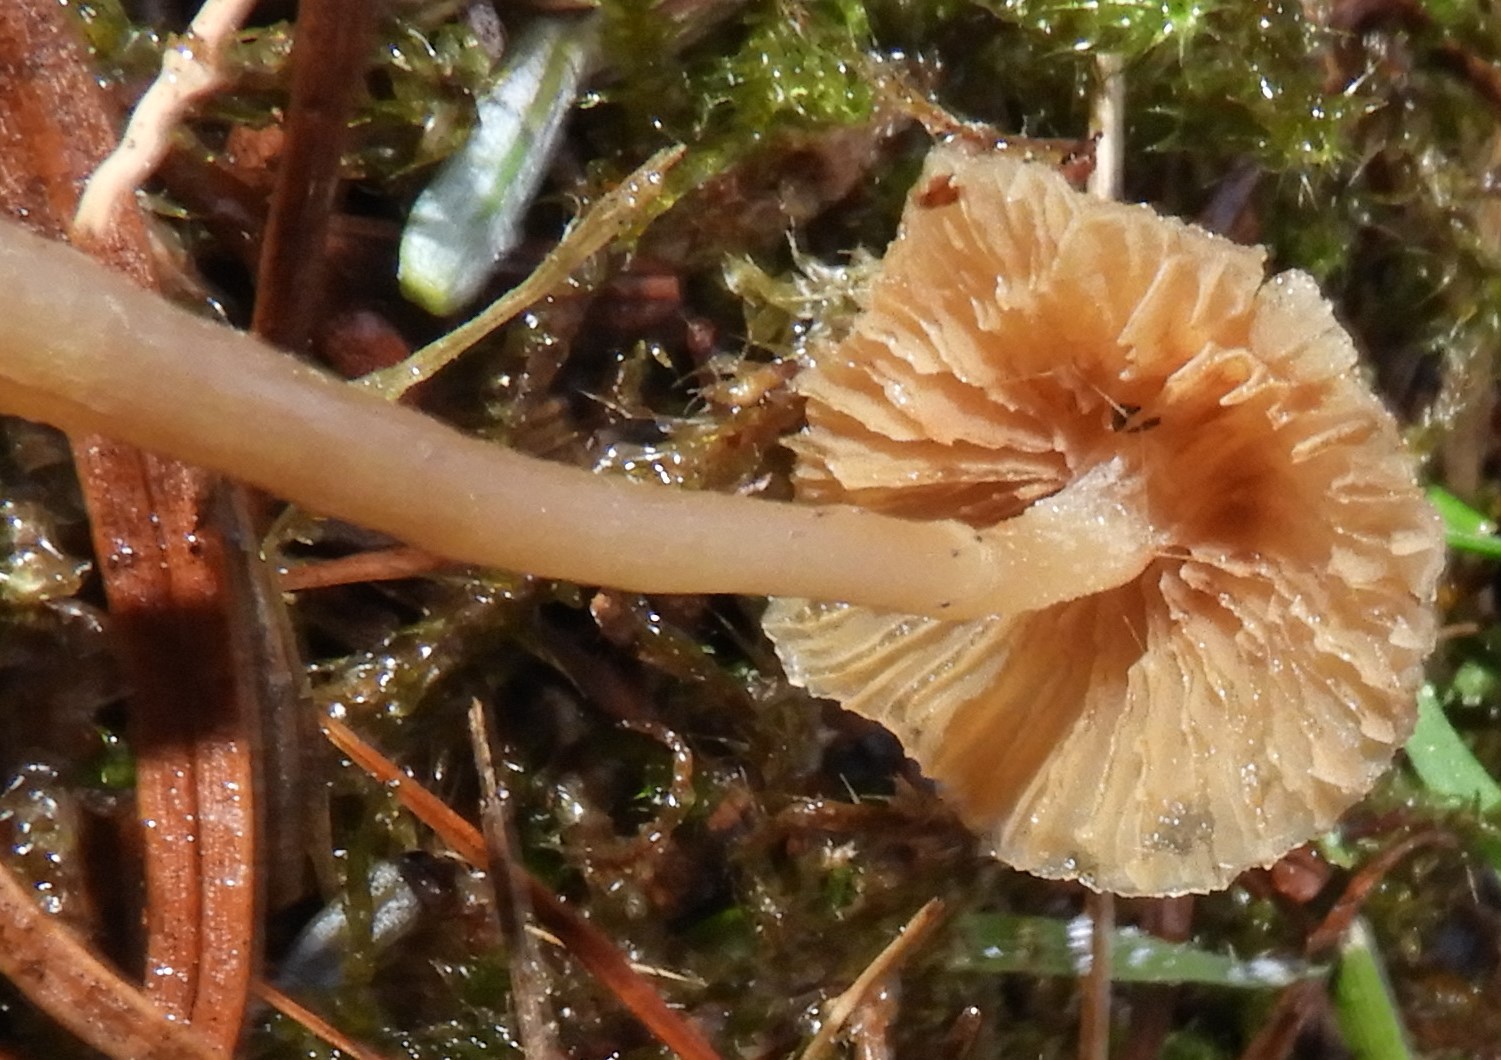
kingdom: Fungi
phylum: Basidiomycota
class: Agaricomycetes
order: Agaricales
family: Hymenogastraceae
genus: Galerina
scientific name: Galerina
